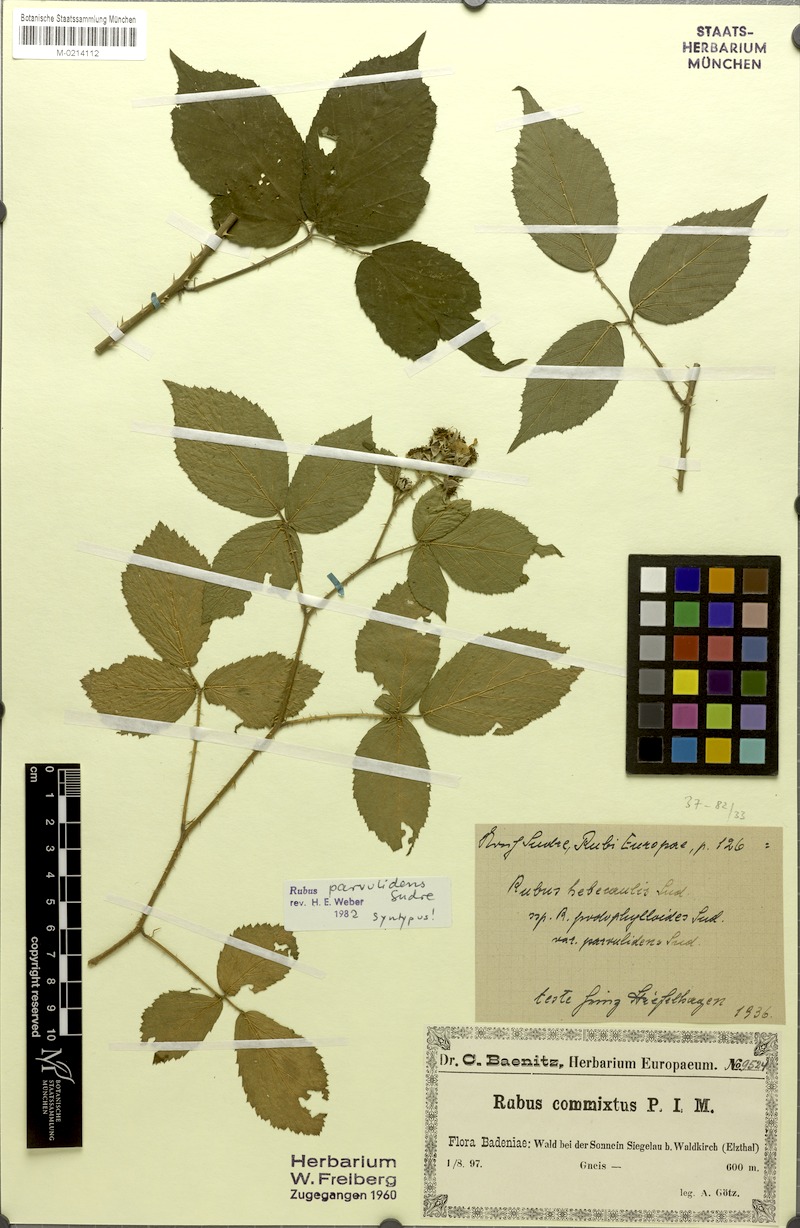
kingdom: Plantae
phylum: Tracheophyta
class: Magnoliopsida
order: Rosales
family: Rosaceae
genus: Rubus
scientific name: Rubus hebecaulis
